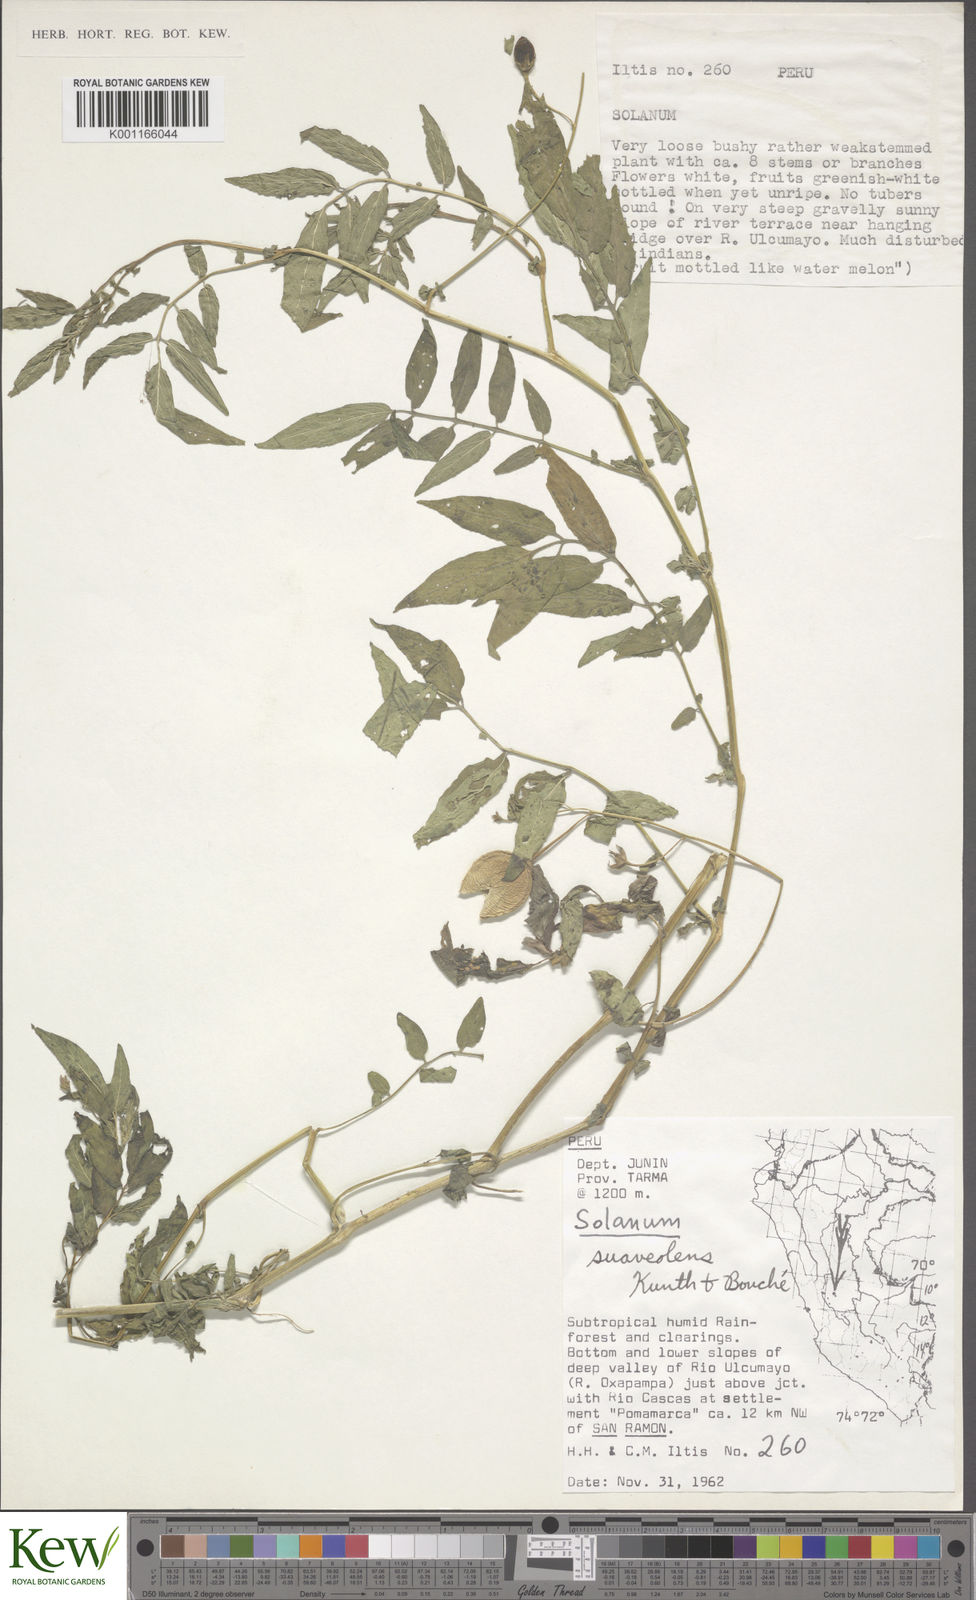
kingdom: Plantae
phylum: Tracheophyta
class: Magnoliopsida
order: Solanales
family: Solanaceae
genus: Solanum
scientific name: Solanum suaveolens
